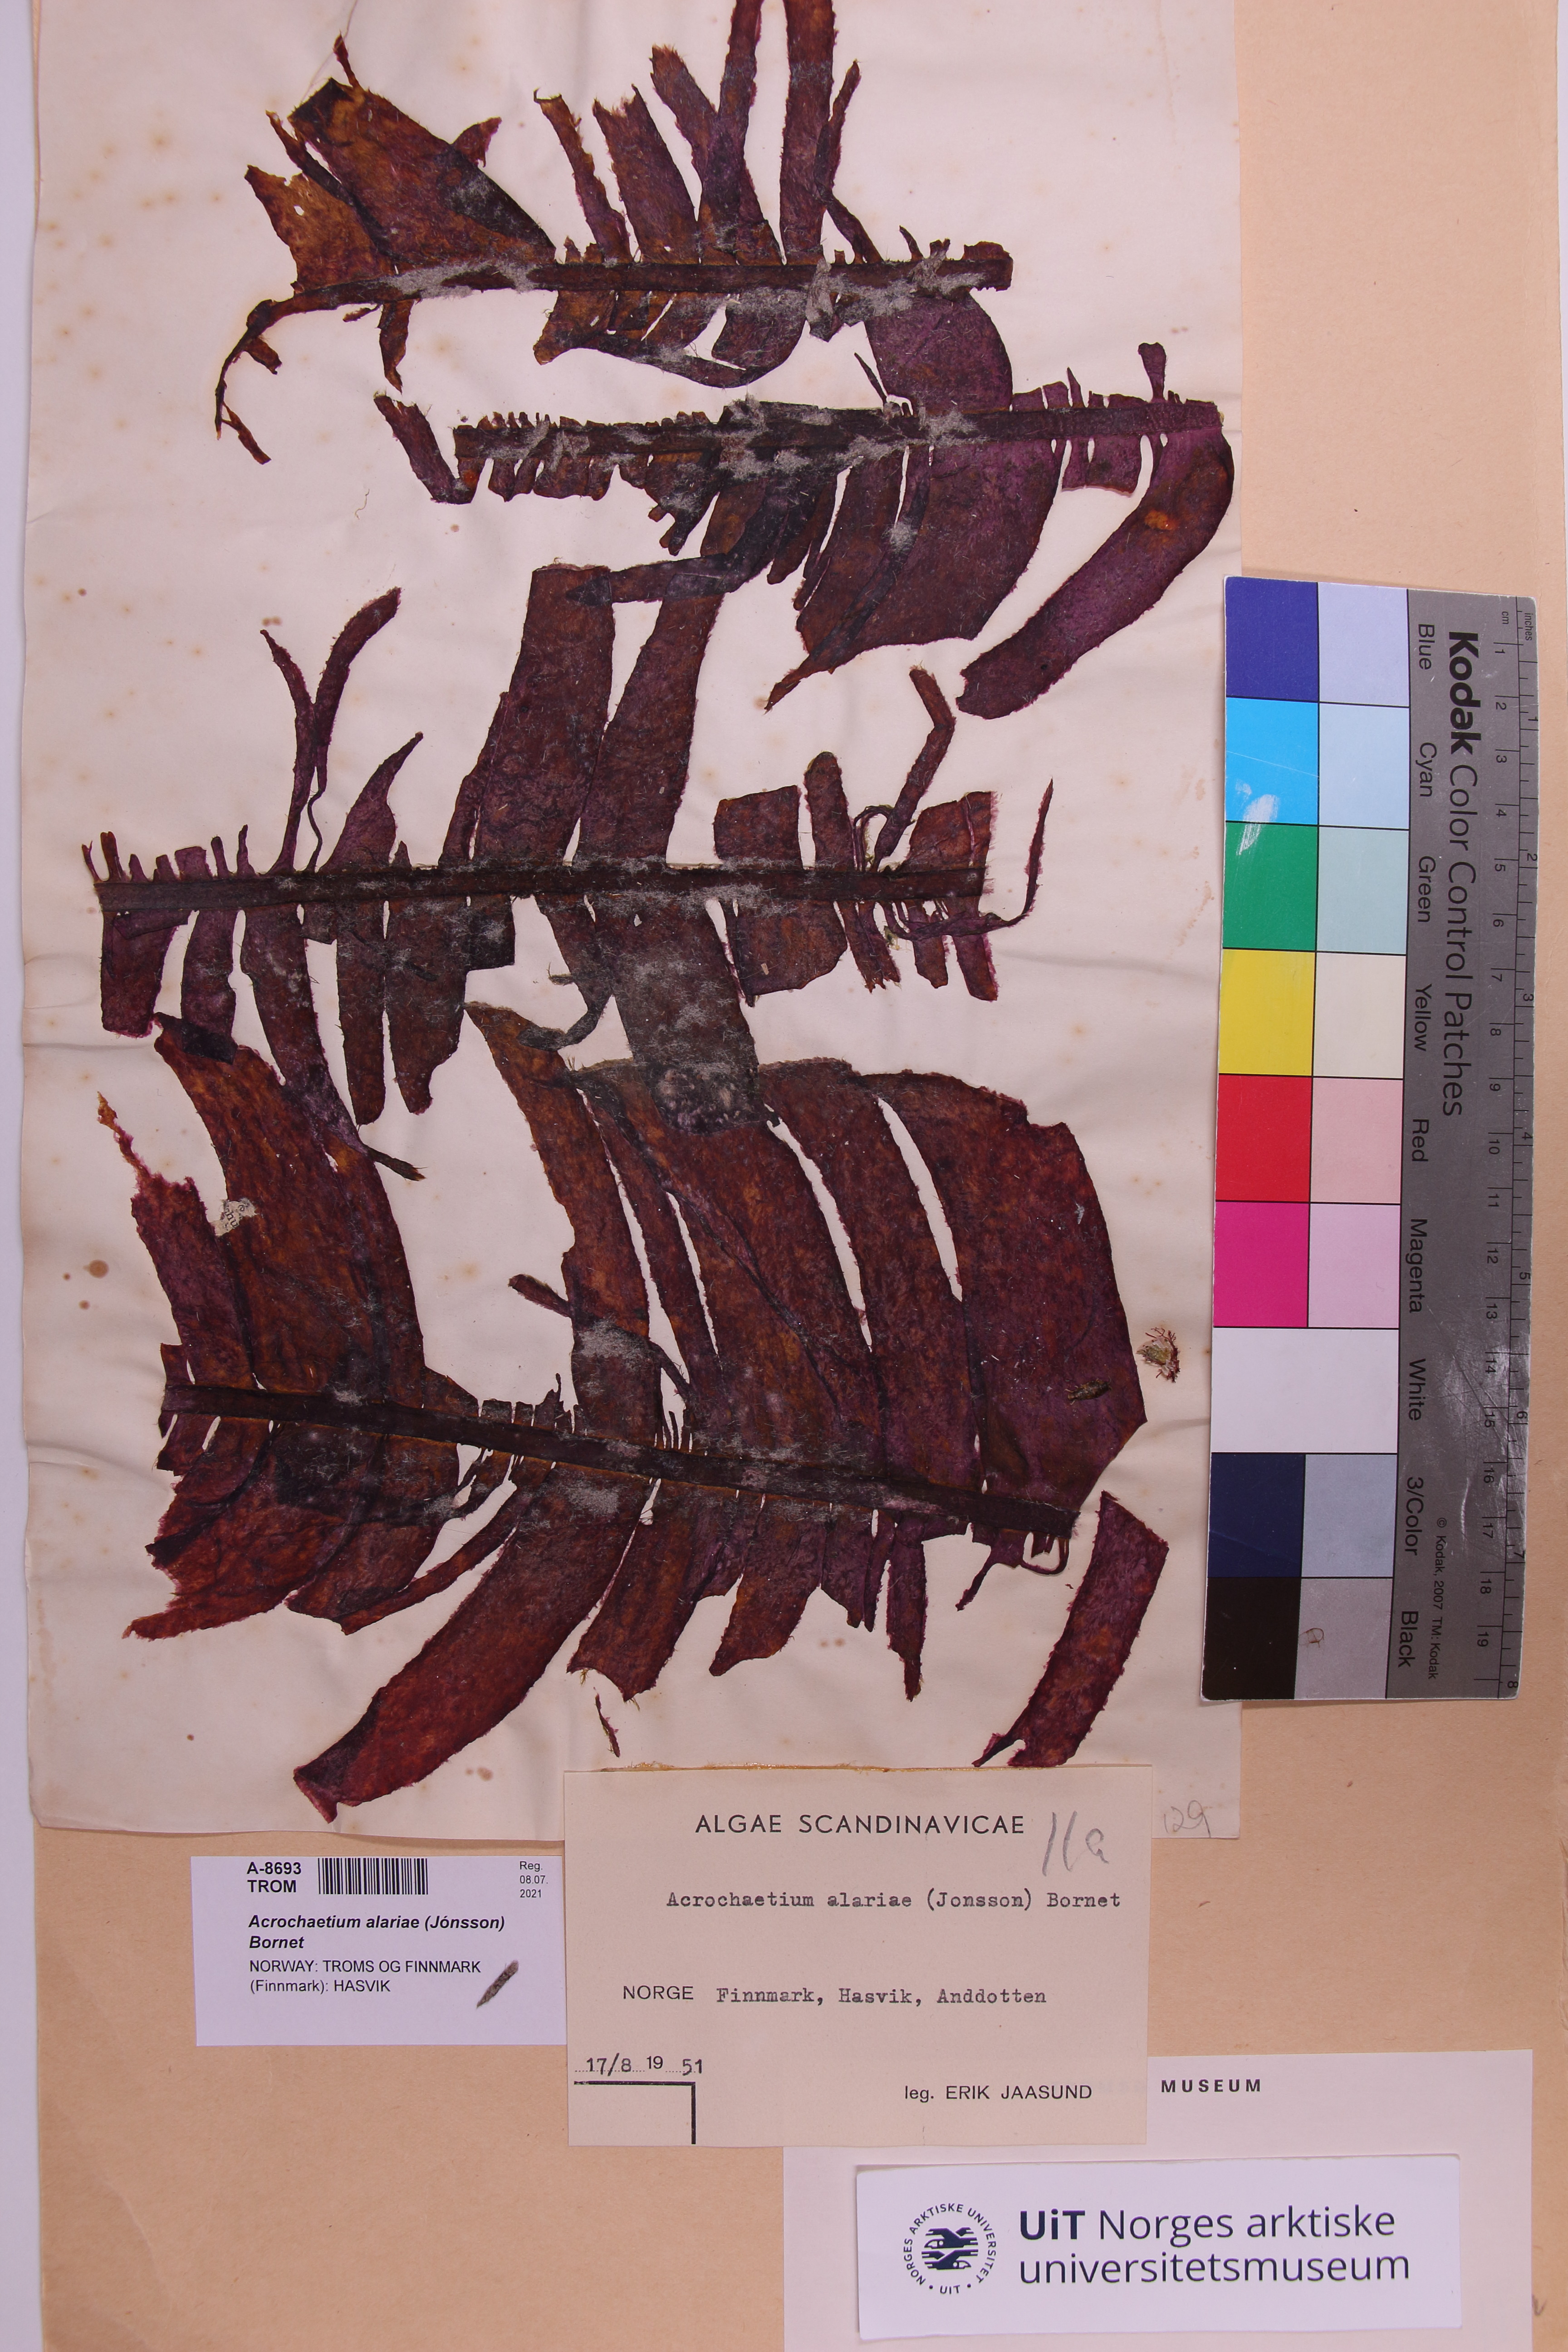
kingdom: Plantae
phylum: Rhodophyta
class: Florideophyceae
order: Acrochaetiales
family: Acrochaetiaceae
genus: Acrochaetium
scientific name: Acrochaetium alariae
